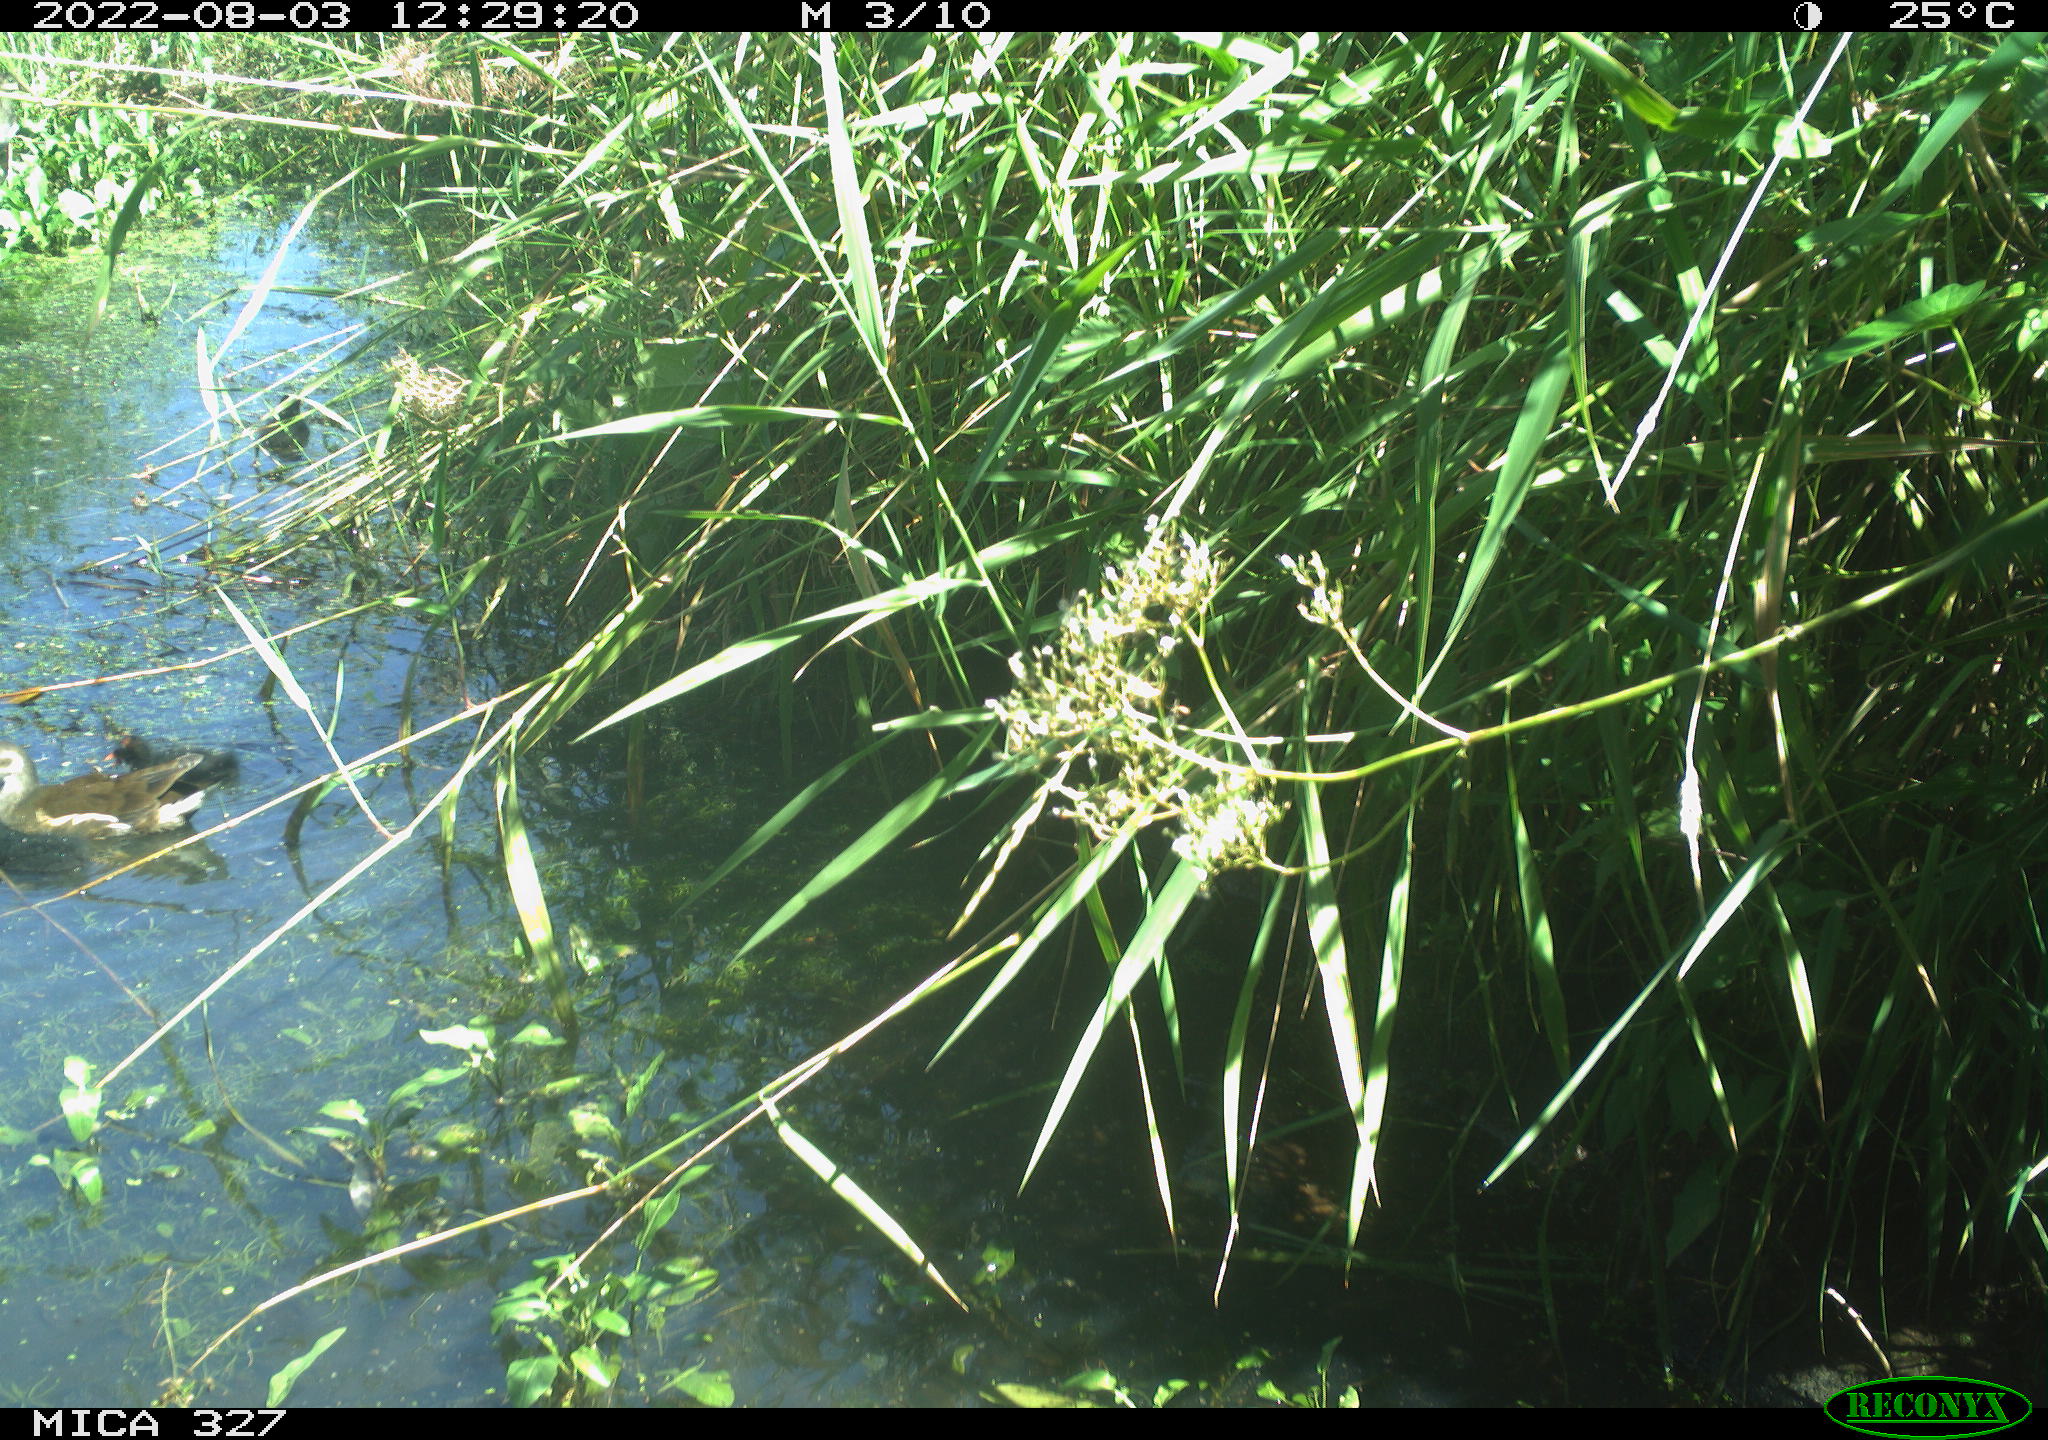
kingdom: Animalia
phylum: Chordata
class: Aves
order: Gruiformes
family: Rallidae
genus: Gallinula
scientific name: Gallinula chloropus
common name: Common moorhen
